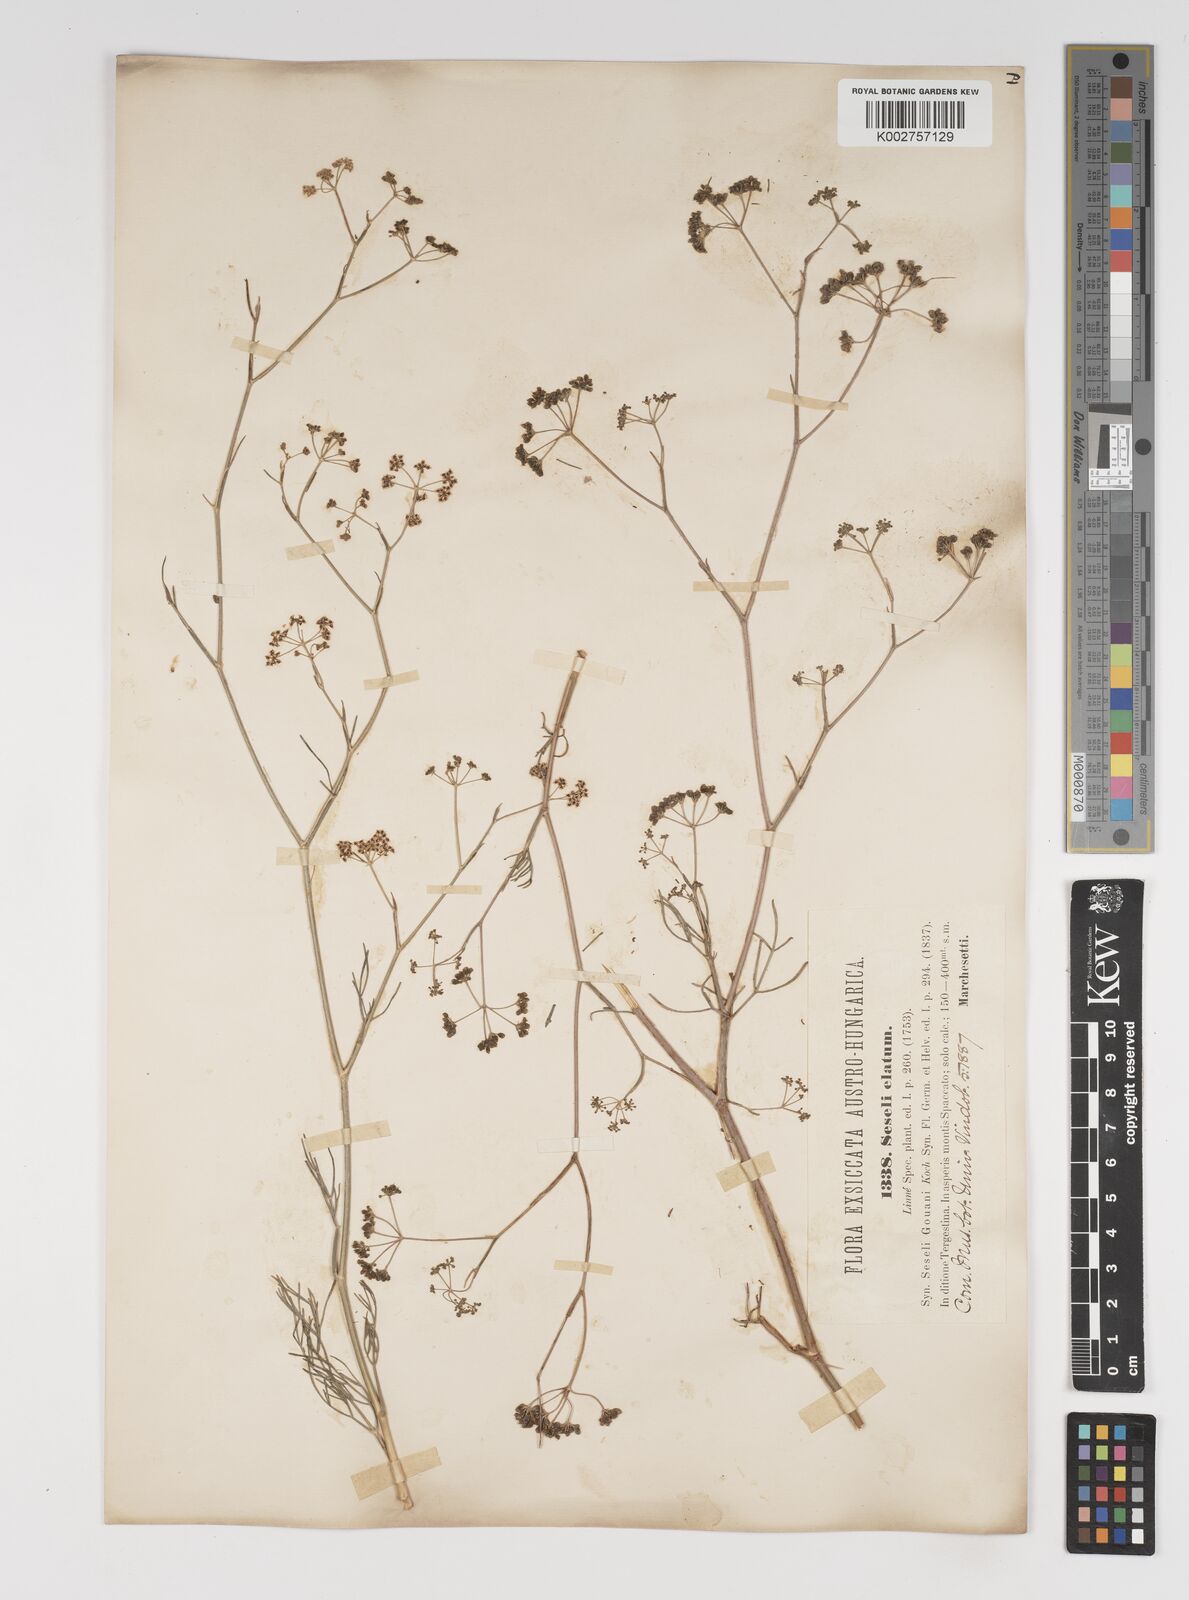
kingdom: Plantae
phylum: Tracheophyta
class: Magnoliopsida
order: Apiales
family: Apiaceae
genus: Seseli
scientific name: Seseli longifolium
